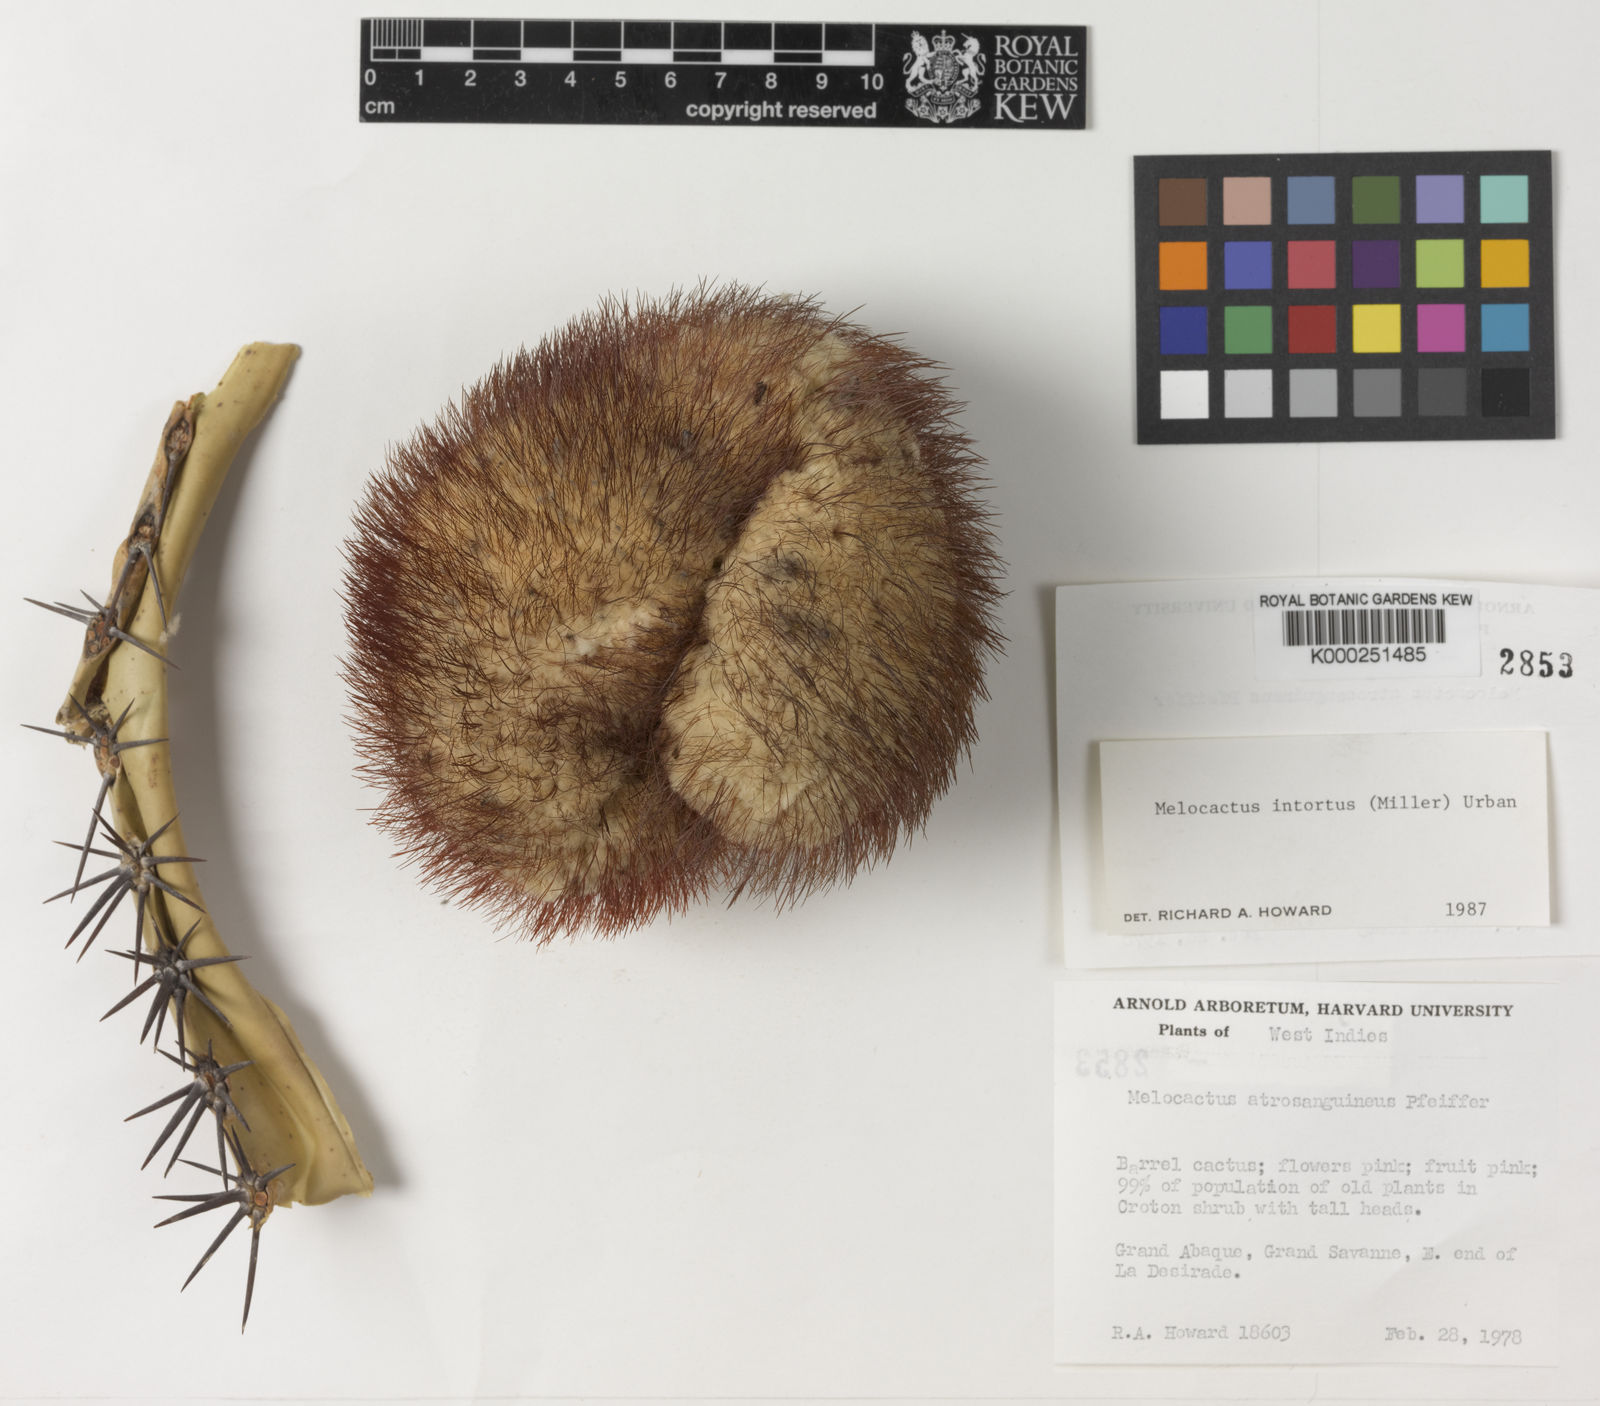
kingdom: Plantae
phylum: Tracheophyta
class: Magnoliopsida
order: Caryophyllales
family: Cactaceae
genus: Melocactus
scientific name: Melocactus
